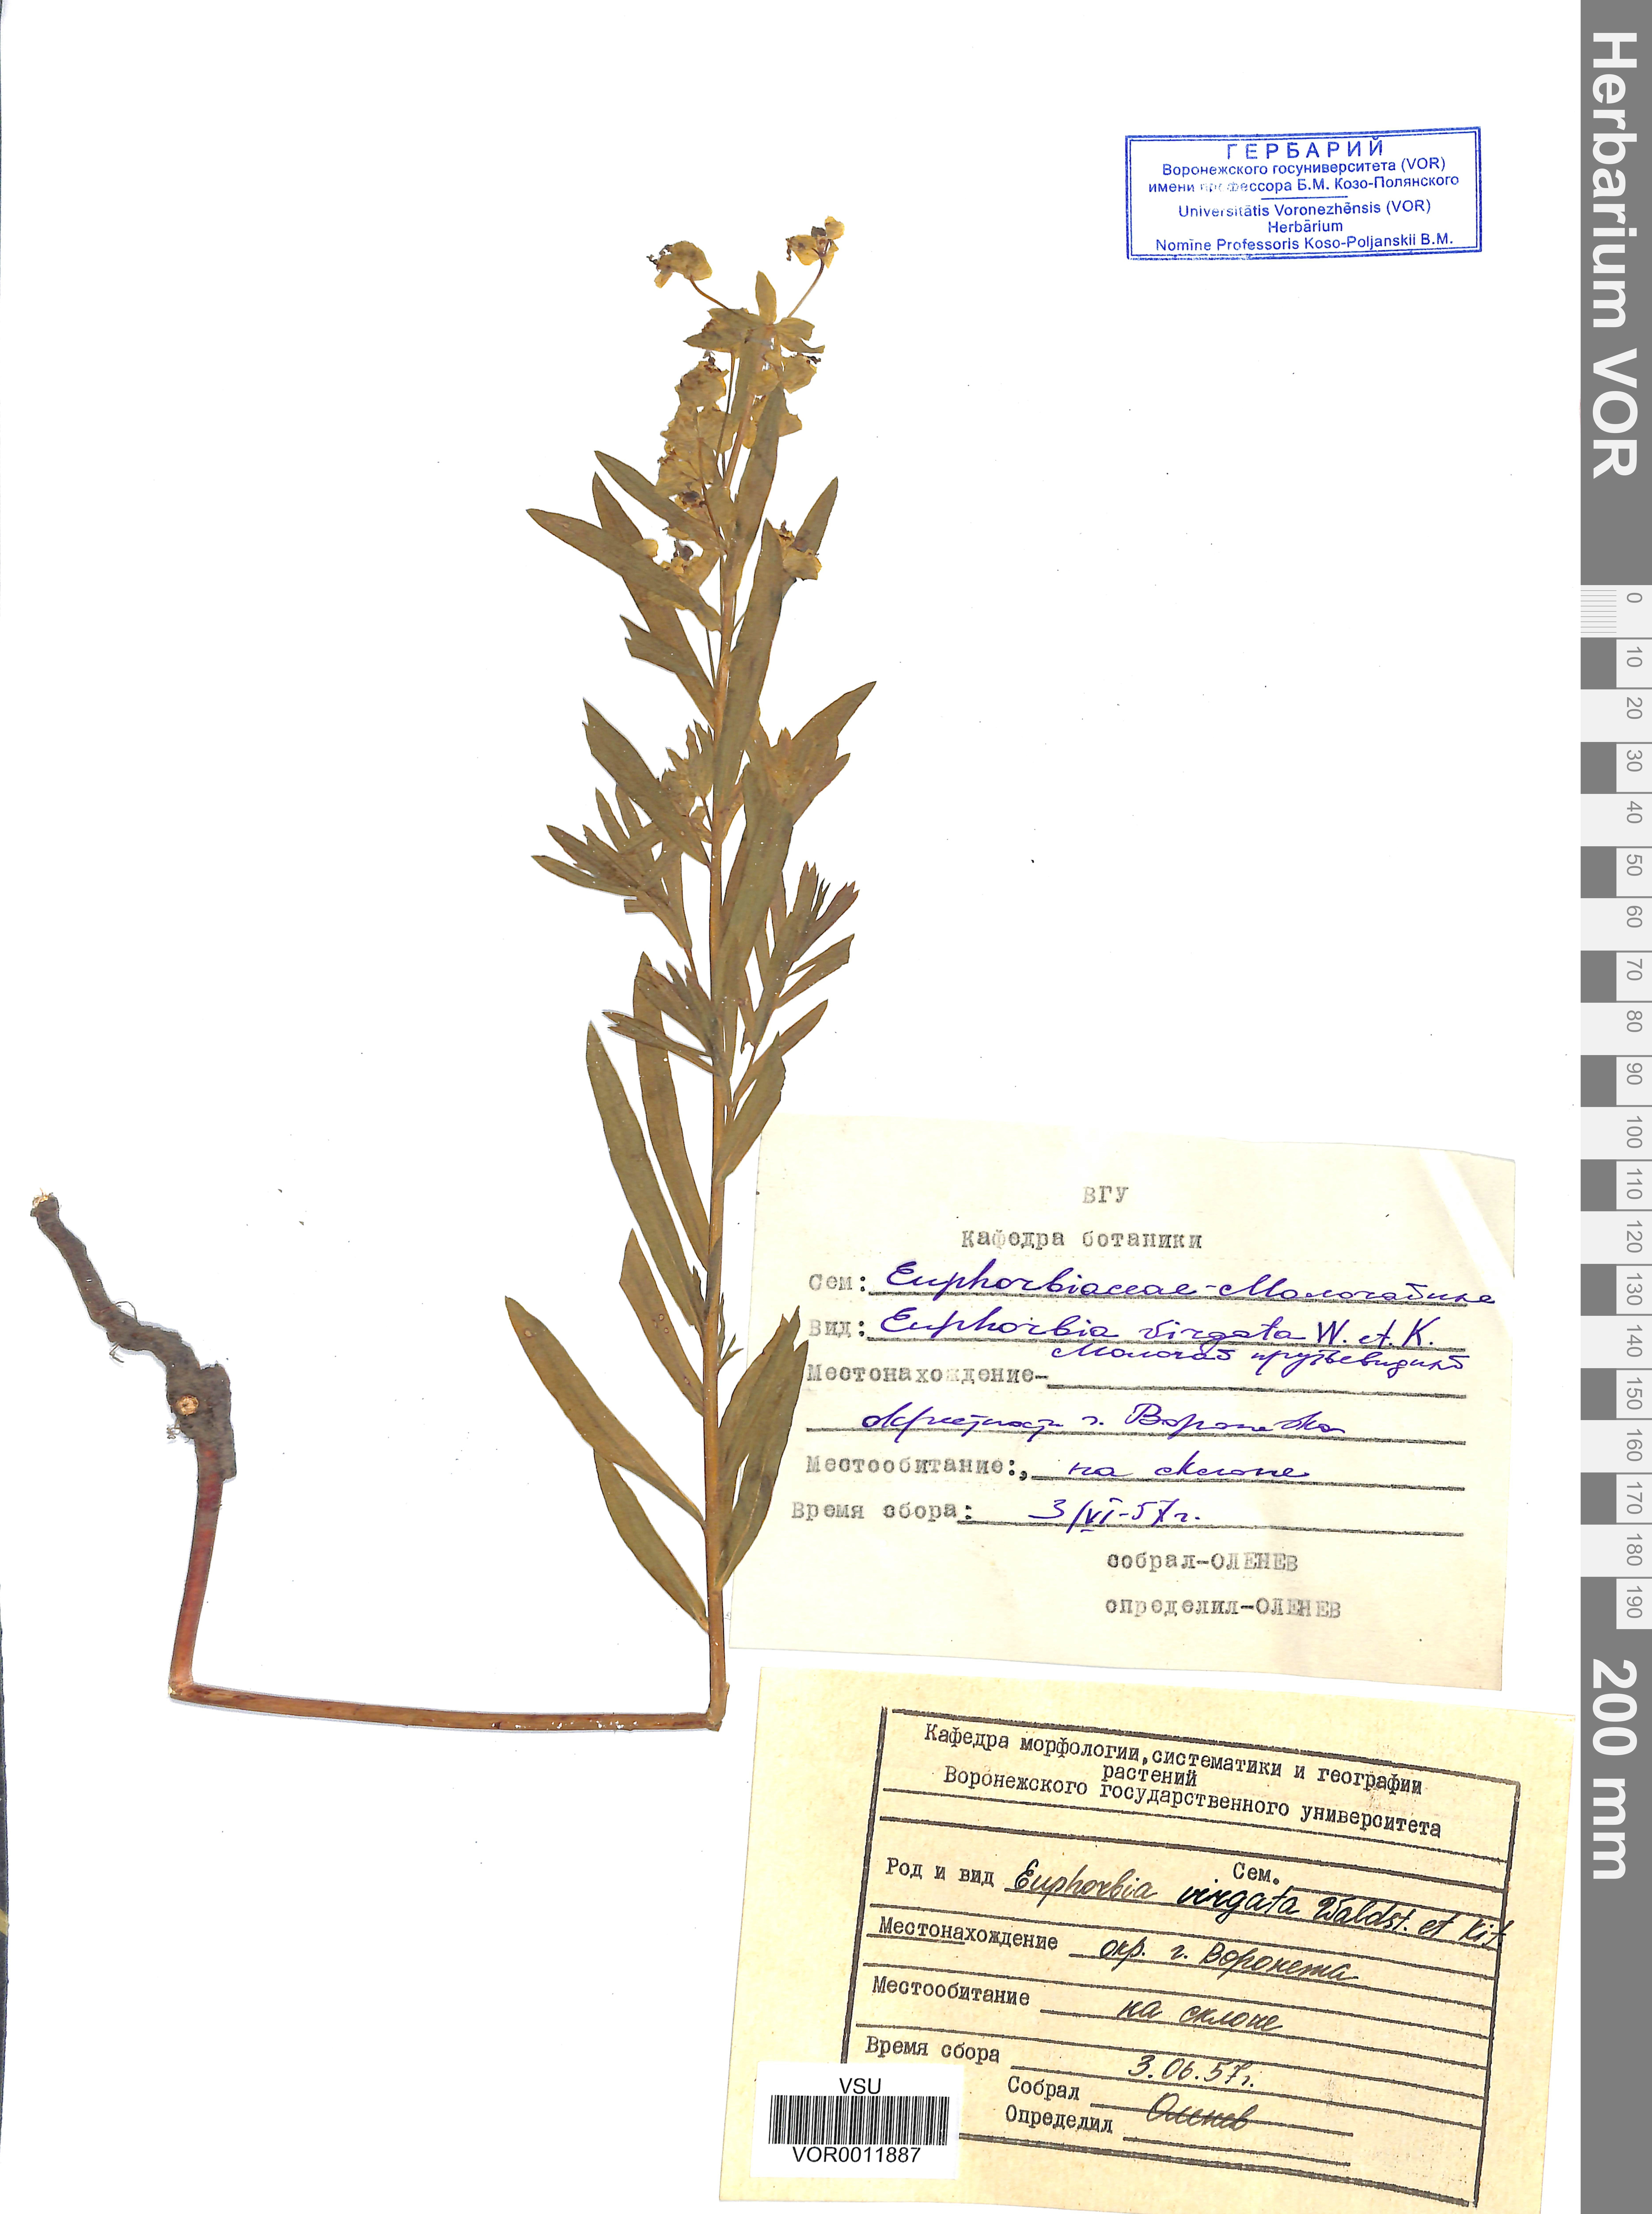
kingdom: Plantae
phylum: Tracheophyta
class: Magnoliopsida
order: Malpighiales
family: Euphorbiaceae
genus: Euphorbia
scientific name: Euphorbia virgata
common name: Leafy spurge
